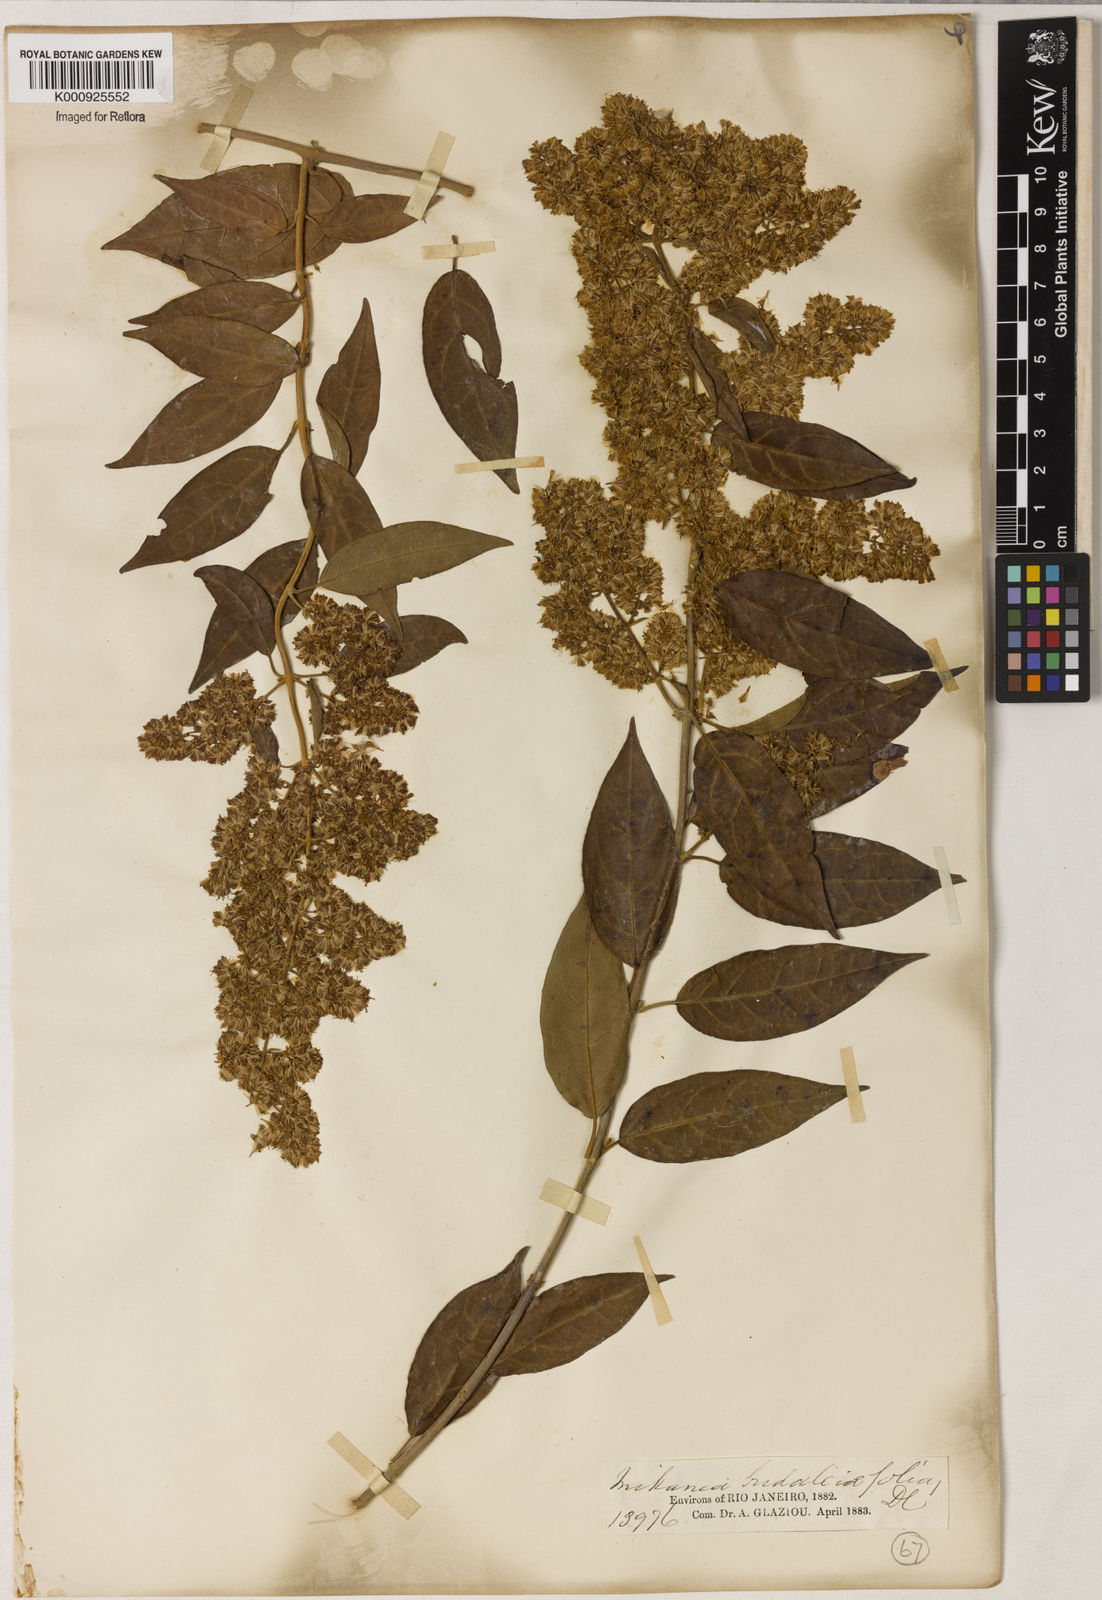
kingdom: Plantae
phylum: Tracheophyta
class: Magnoliopsida
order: Asterales
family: Asteraceae
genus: Mikania
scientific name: Mikania buddlejifolia
